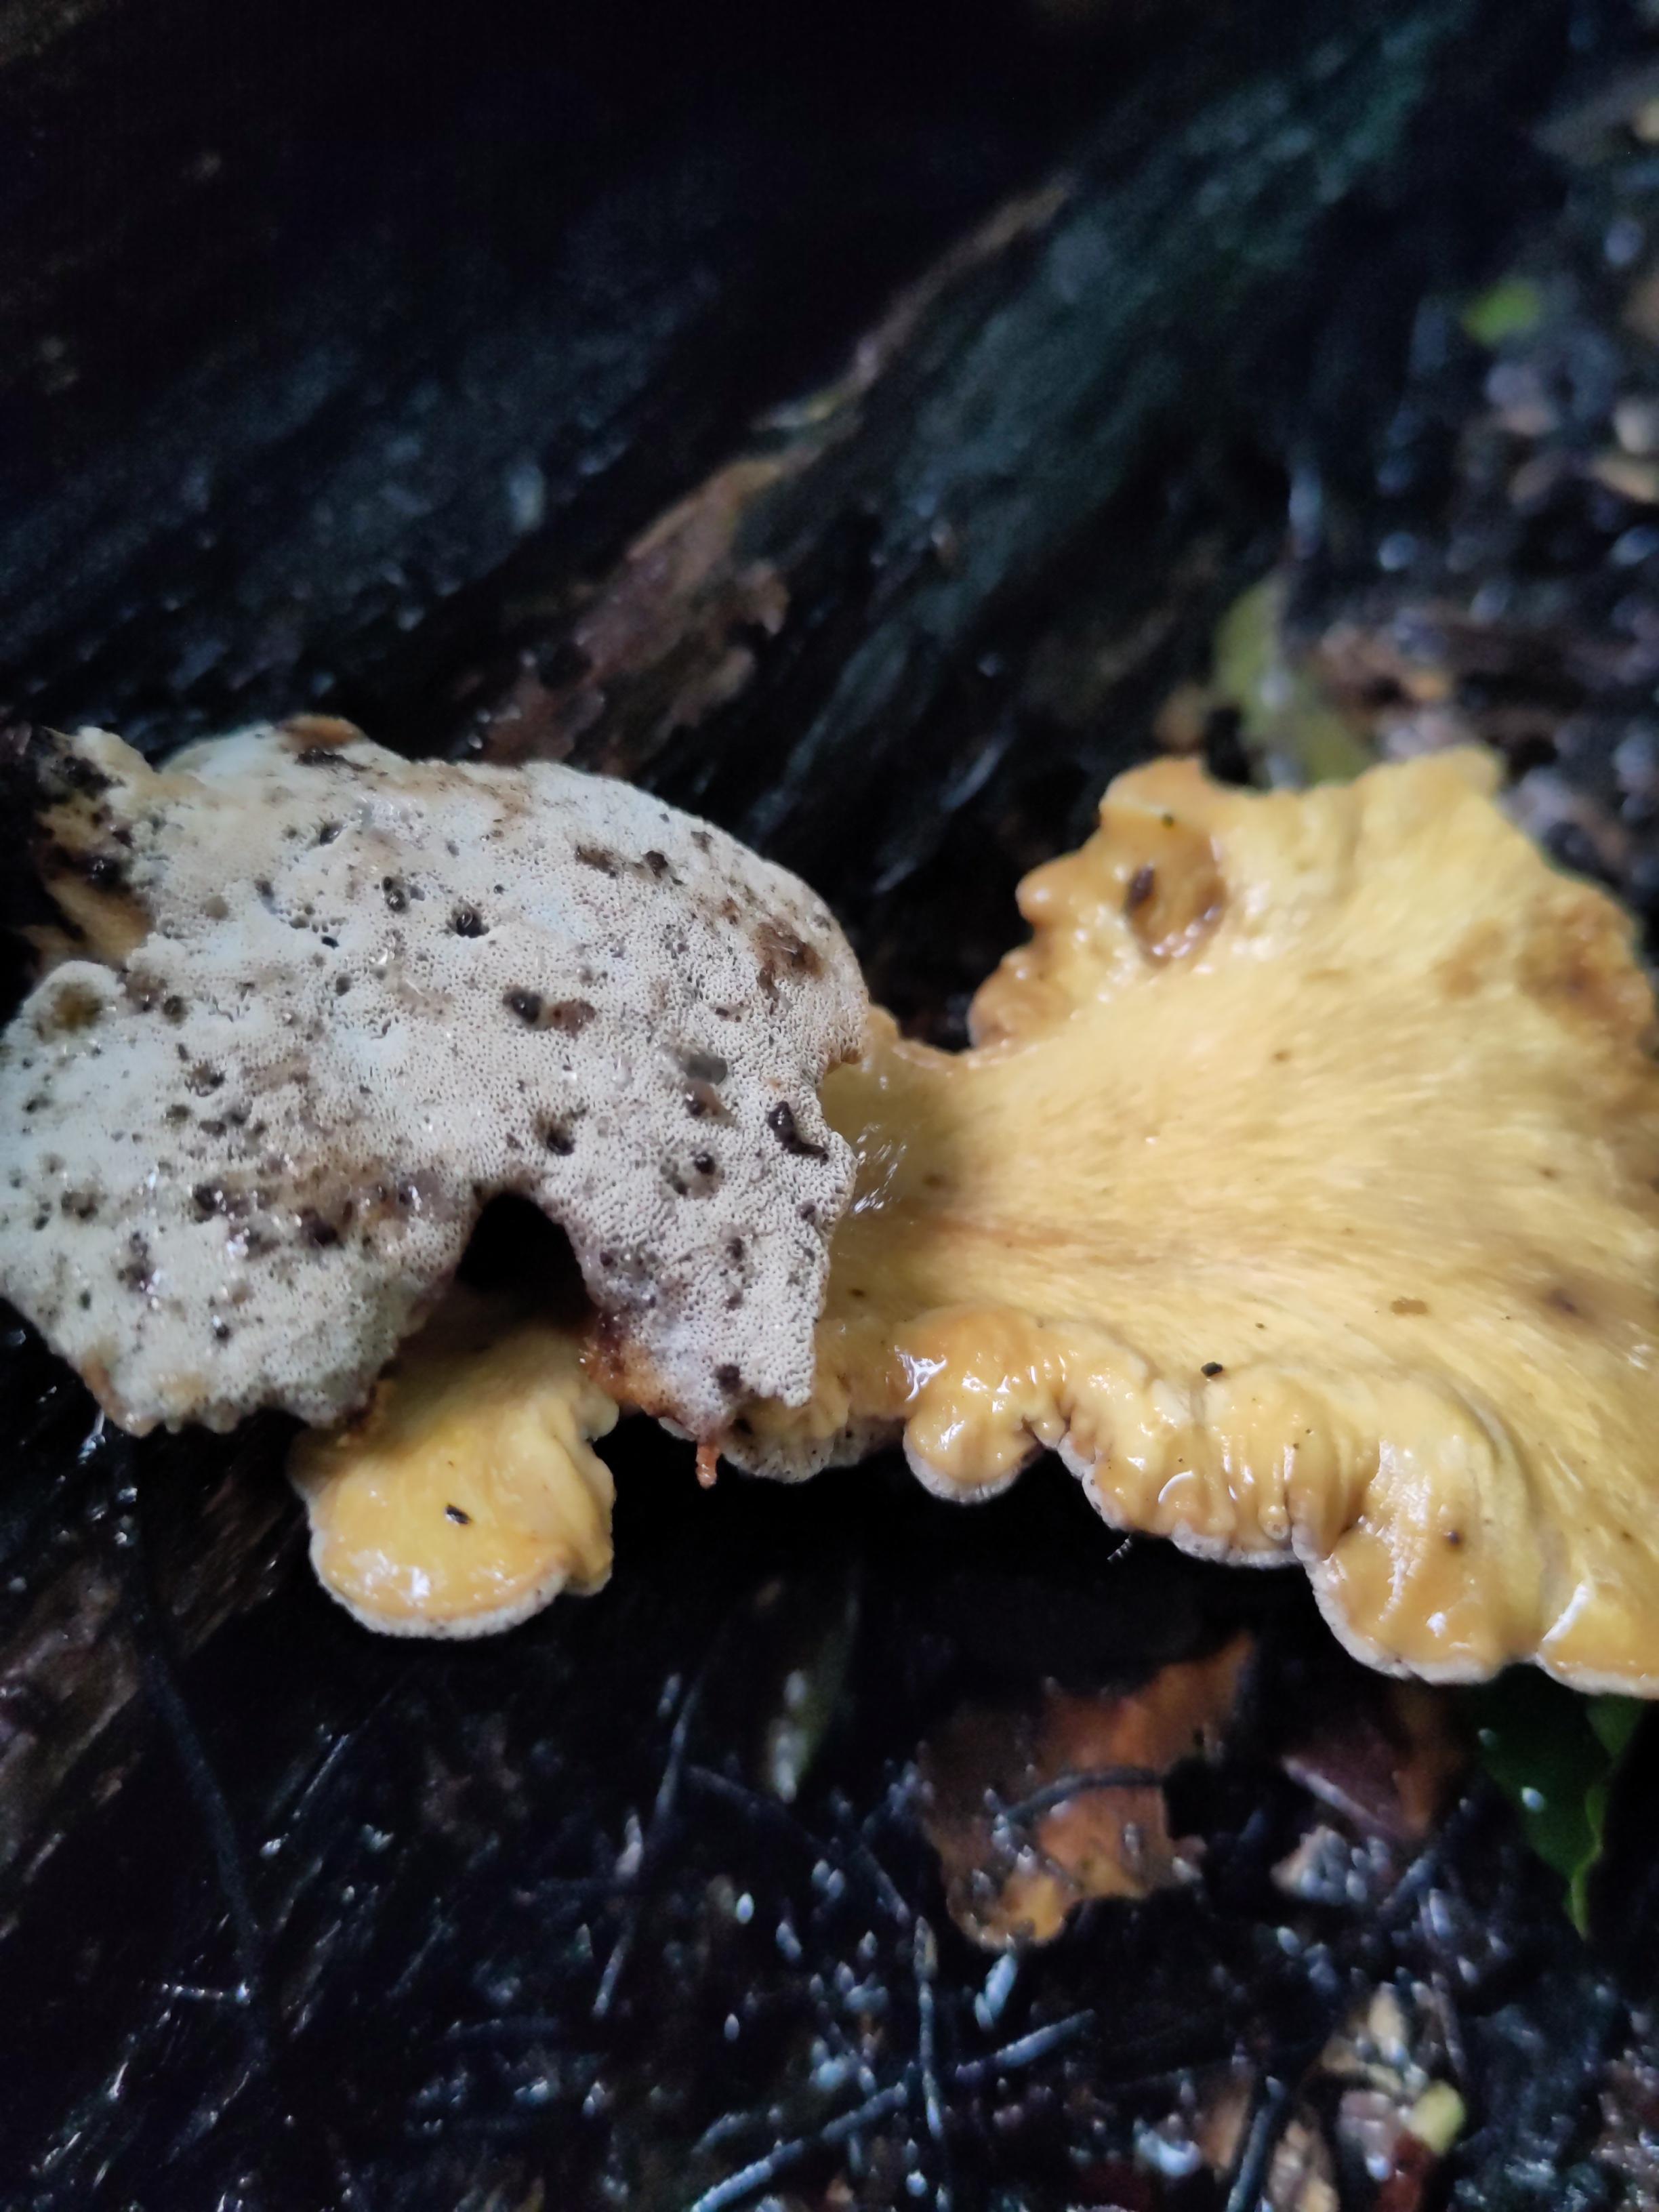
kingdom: Fungi
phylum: Basidiomycota
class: Agaricomycetes
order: Polyporales
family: Polyporaceae
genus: Cerioporus
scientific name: Cerioporus varius
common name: foranderlig stilkporesvamp
